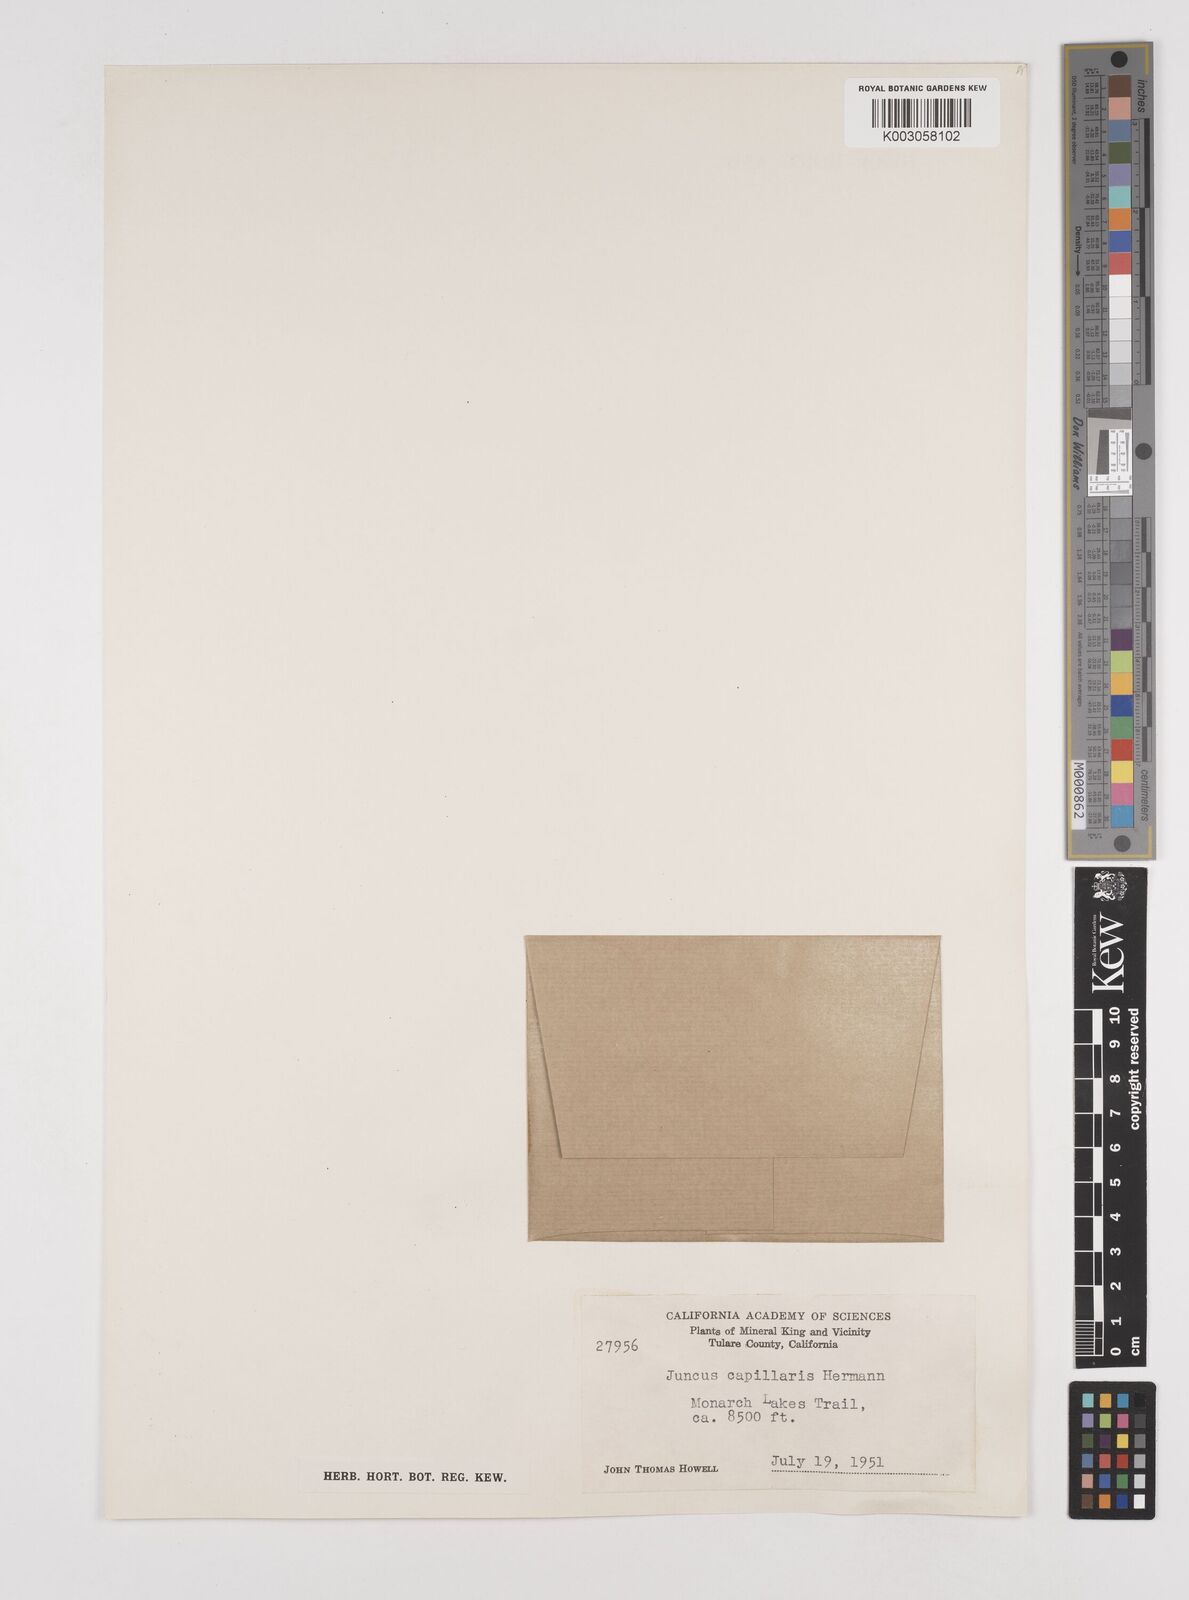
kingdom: Plantae
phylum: Tracheophyta
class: Liliopsida
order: Poales
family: Juncaceae
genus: Juncus
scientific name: Juncus capillaris
